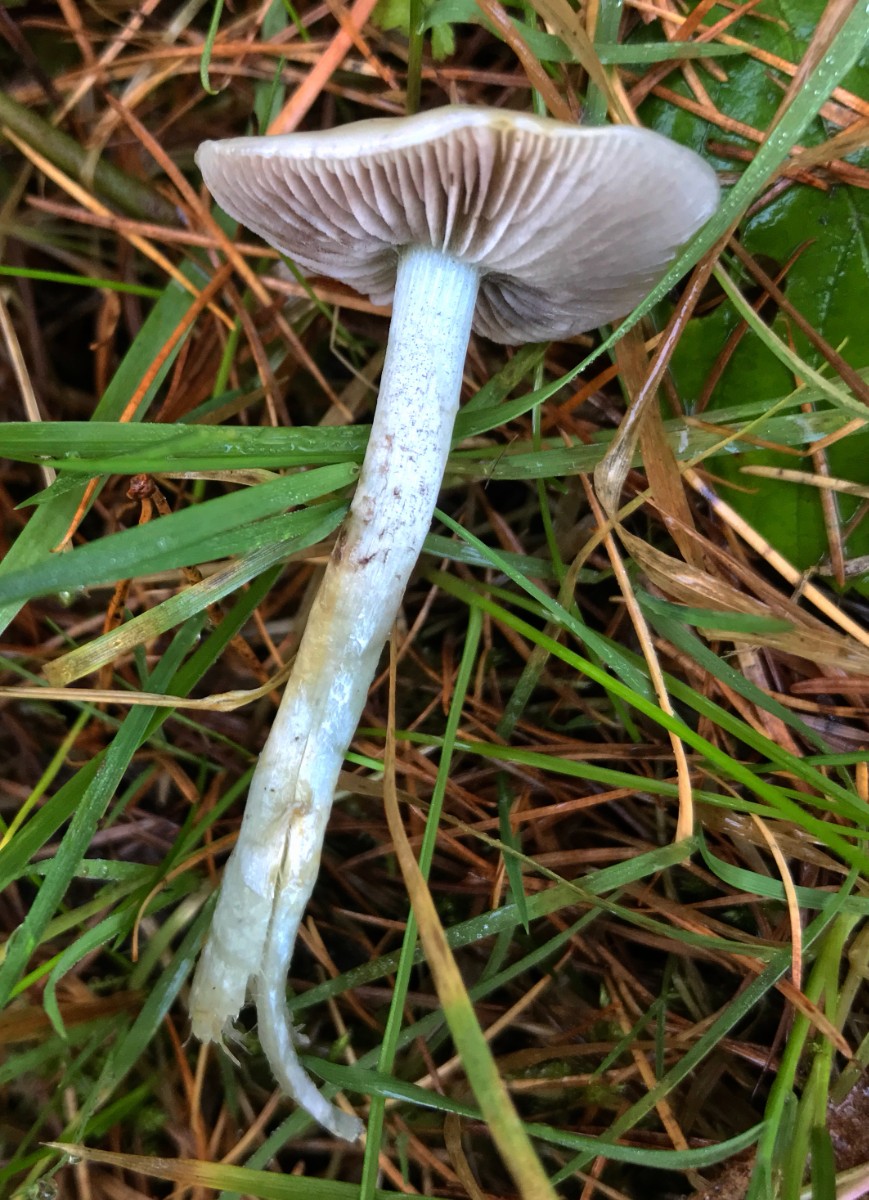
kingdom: Fungi
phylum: Basidiomycota
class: Agaricomycetes
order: Agaricales
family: Strophariaceae
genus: Stropharia
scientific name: Stropharia pseudocyanea
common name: blegblå bredblad
